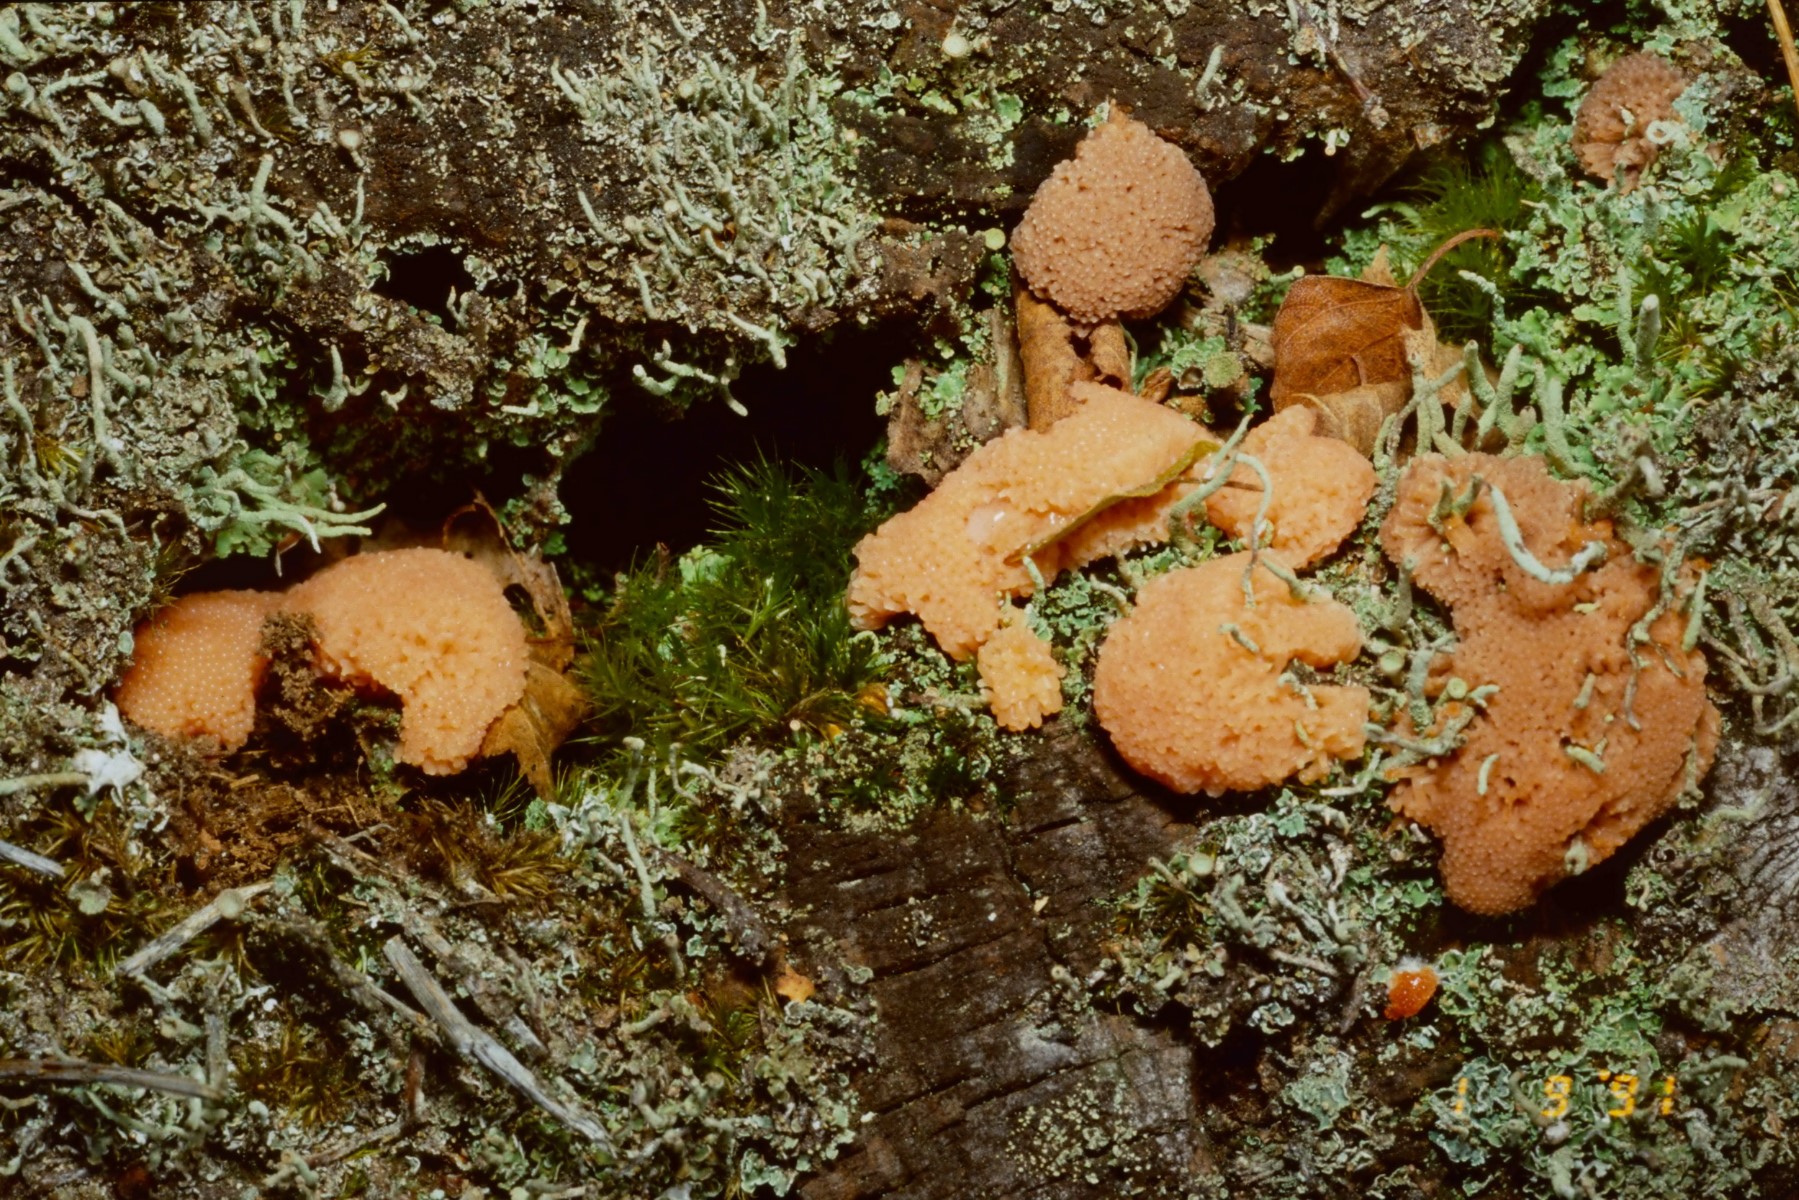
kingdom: Protozoa
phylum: Mycetozoa
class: Myxomycetes
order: Cribrariales
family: Tubiferaceae
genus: Tubifera
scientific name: Tubifera ferruginosa
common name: kanel-støvrør
